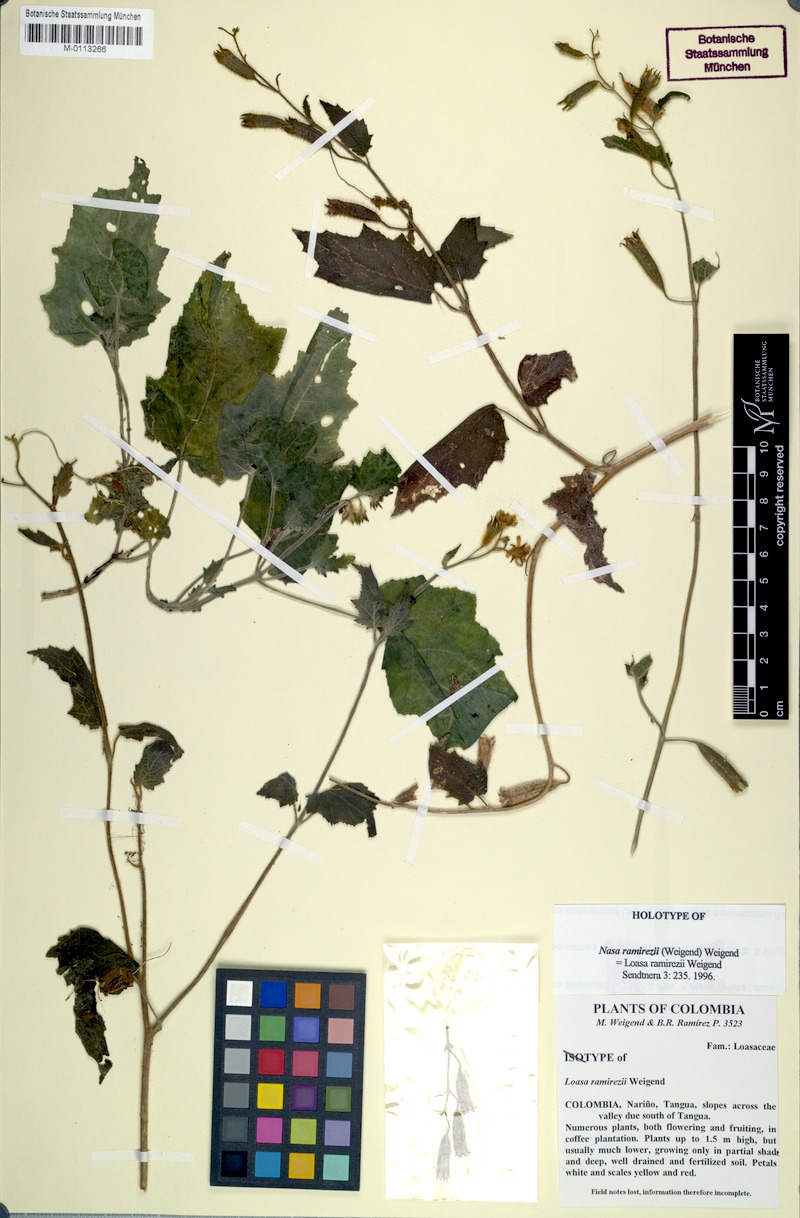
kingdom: Plantae
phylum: Tracheophyta
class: Magnoliopsida
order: Cornales
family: Loasaceae
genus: Nasa
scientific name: Nasa ramirezii
